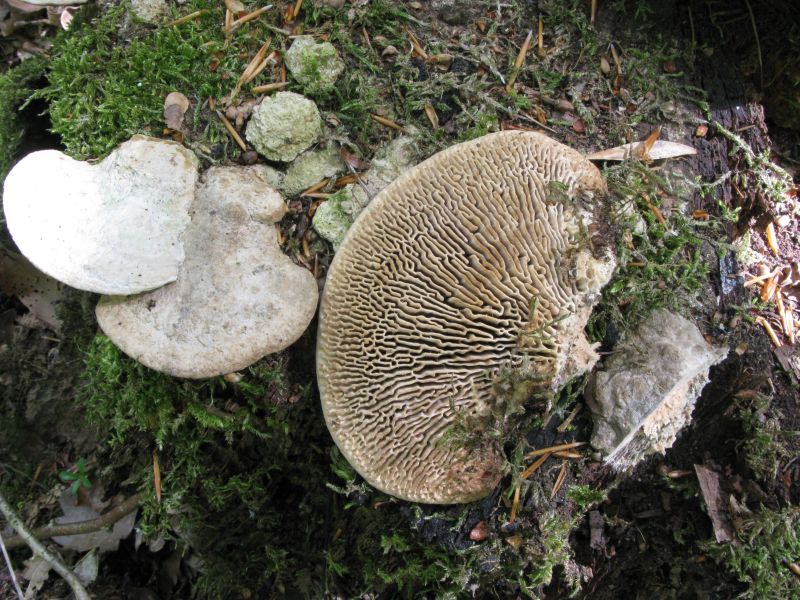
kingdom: Fungi
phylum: Basidiomycota
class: Agaricomycetes
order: Polyporales
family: Fomitopsidaceae
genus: Daedalea
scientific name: Daedalea quercina
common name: ege-labyrintsvamp
